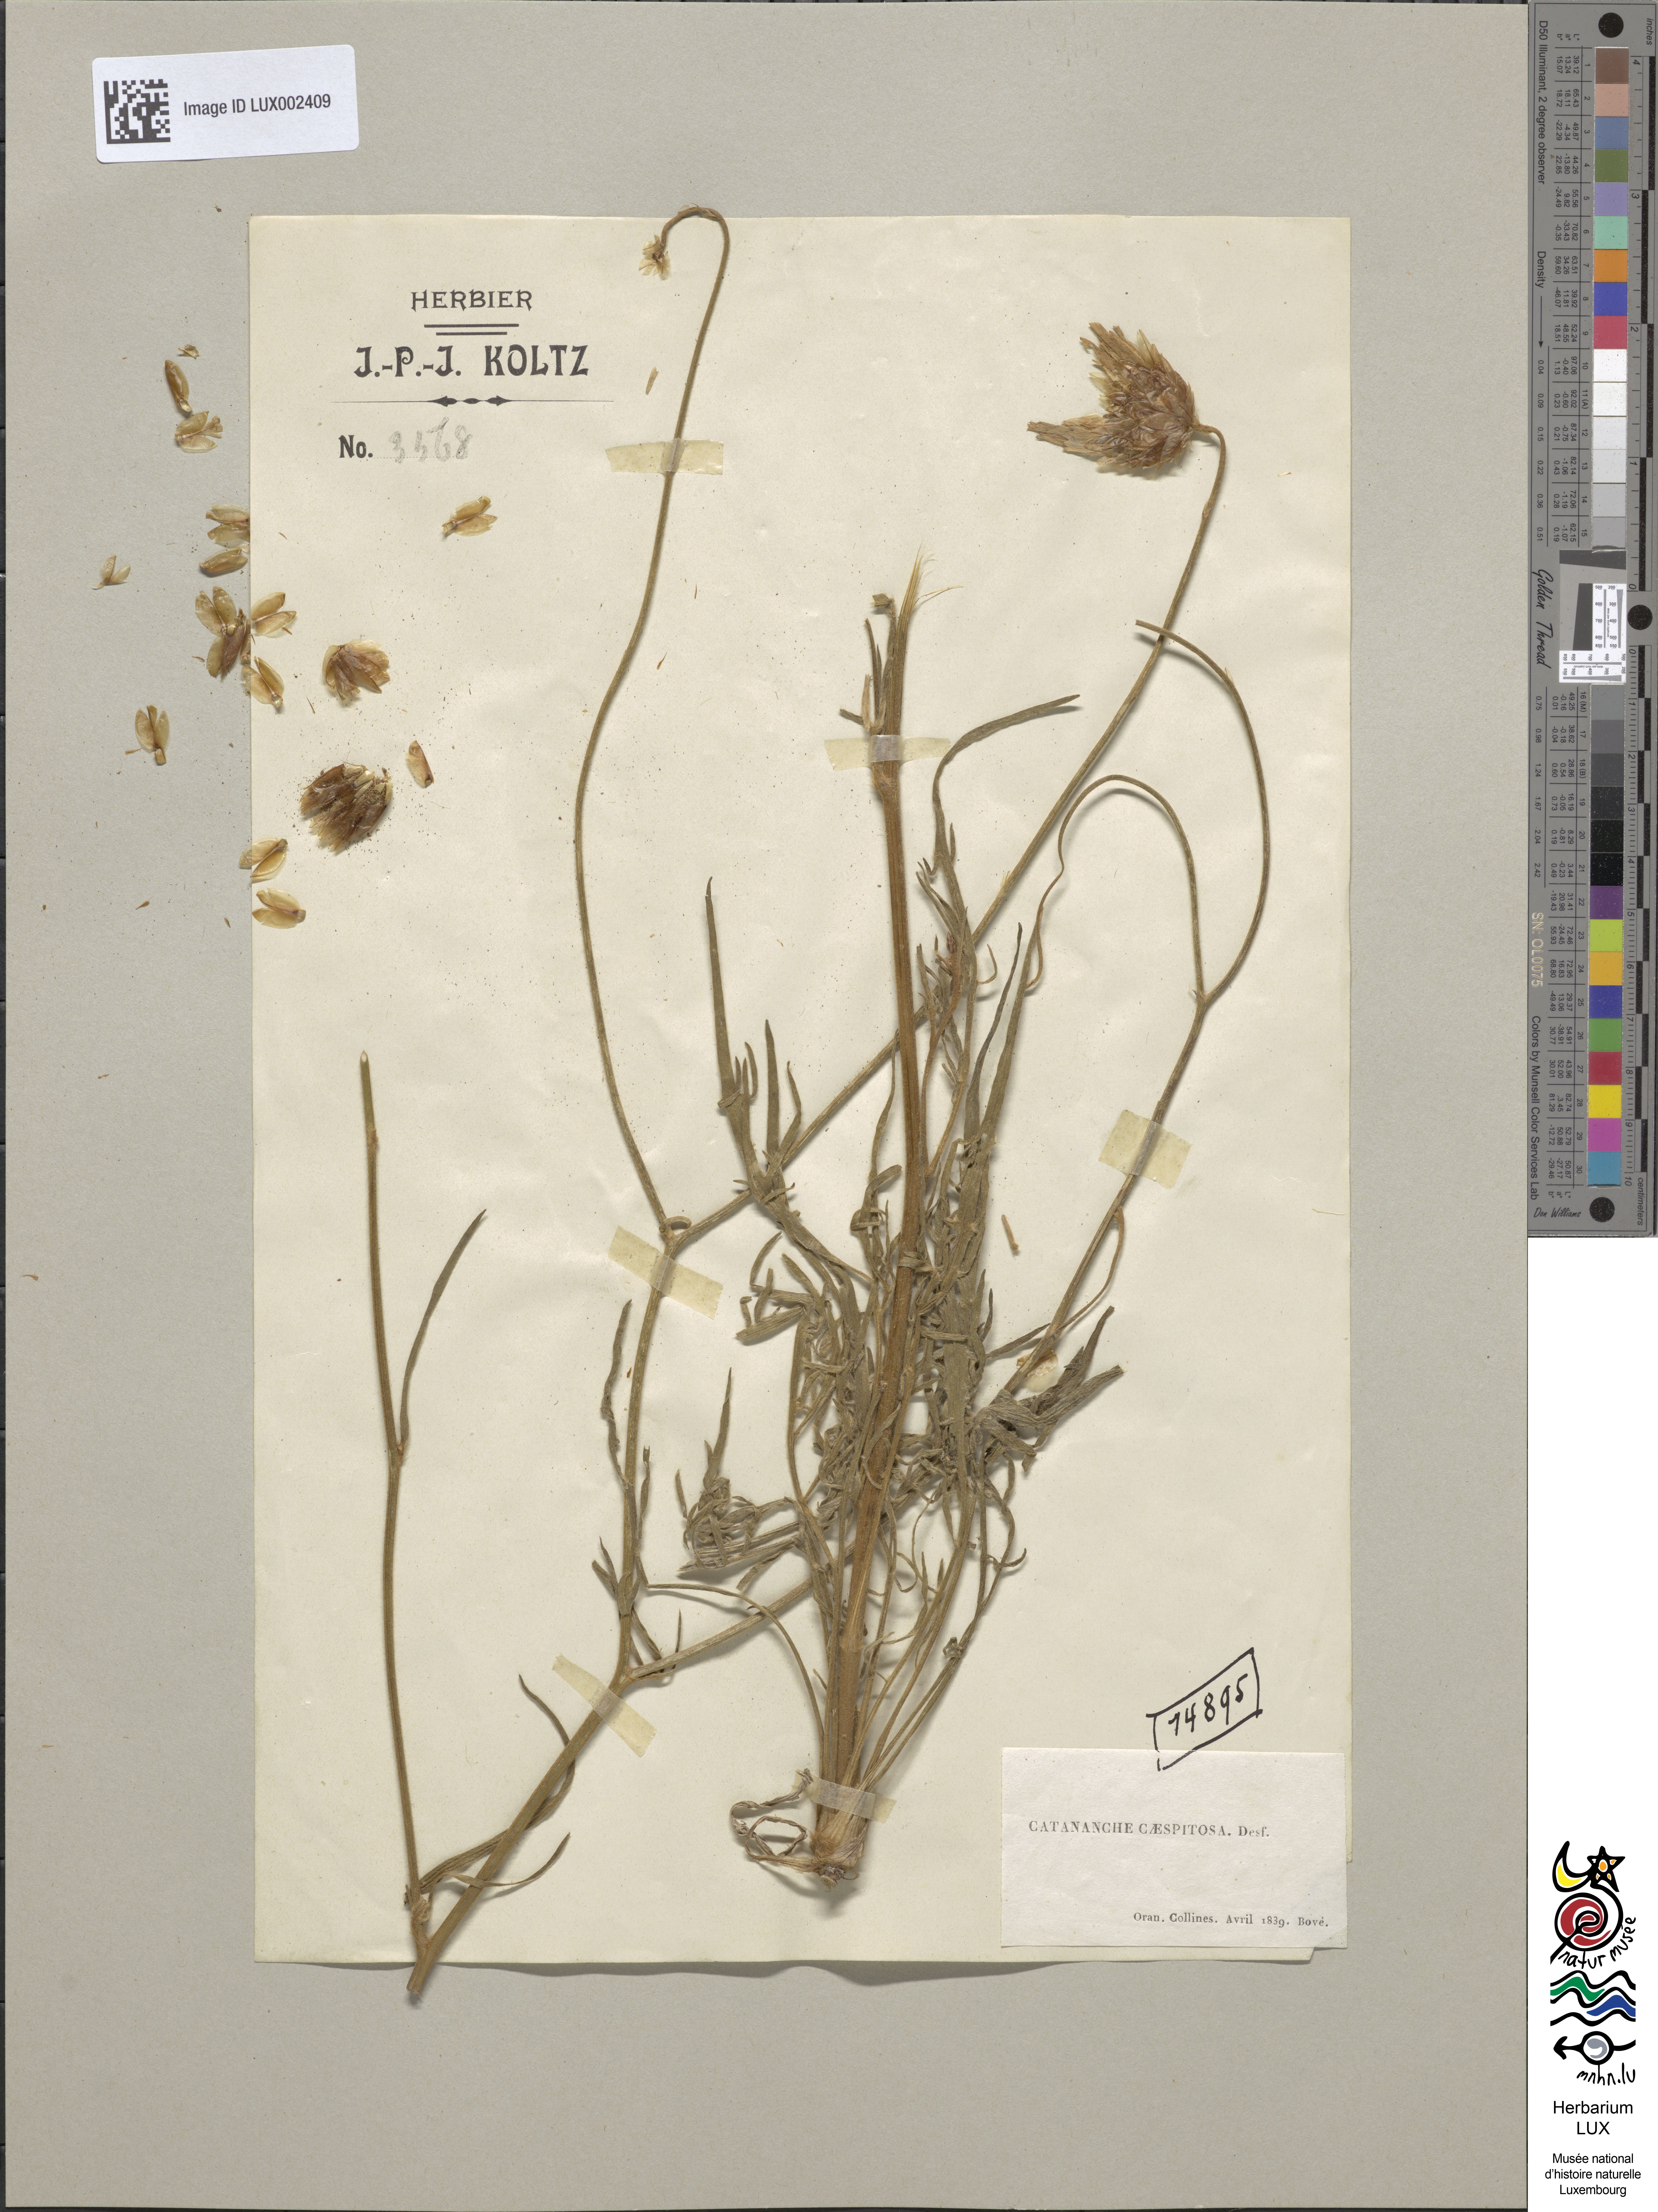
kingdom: Plantae
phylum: Tracheophyta
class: Magnoliopsida
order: Asterales
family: Asteraceae
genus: Catananche
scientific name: Catananche caespitosa
